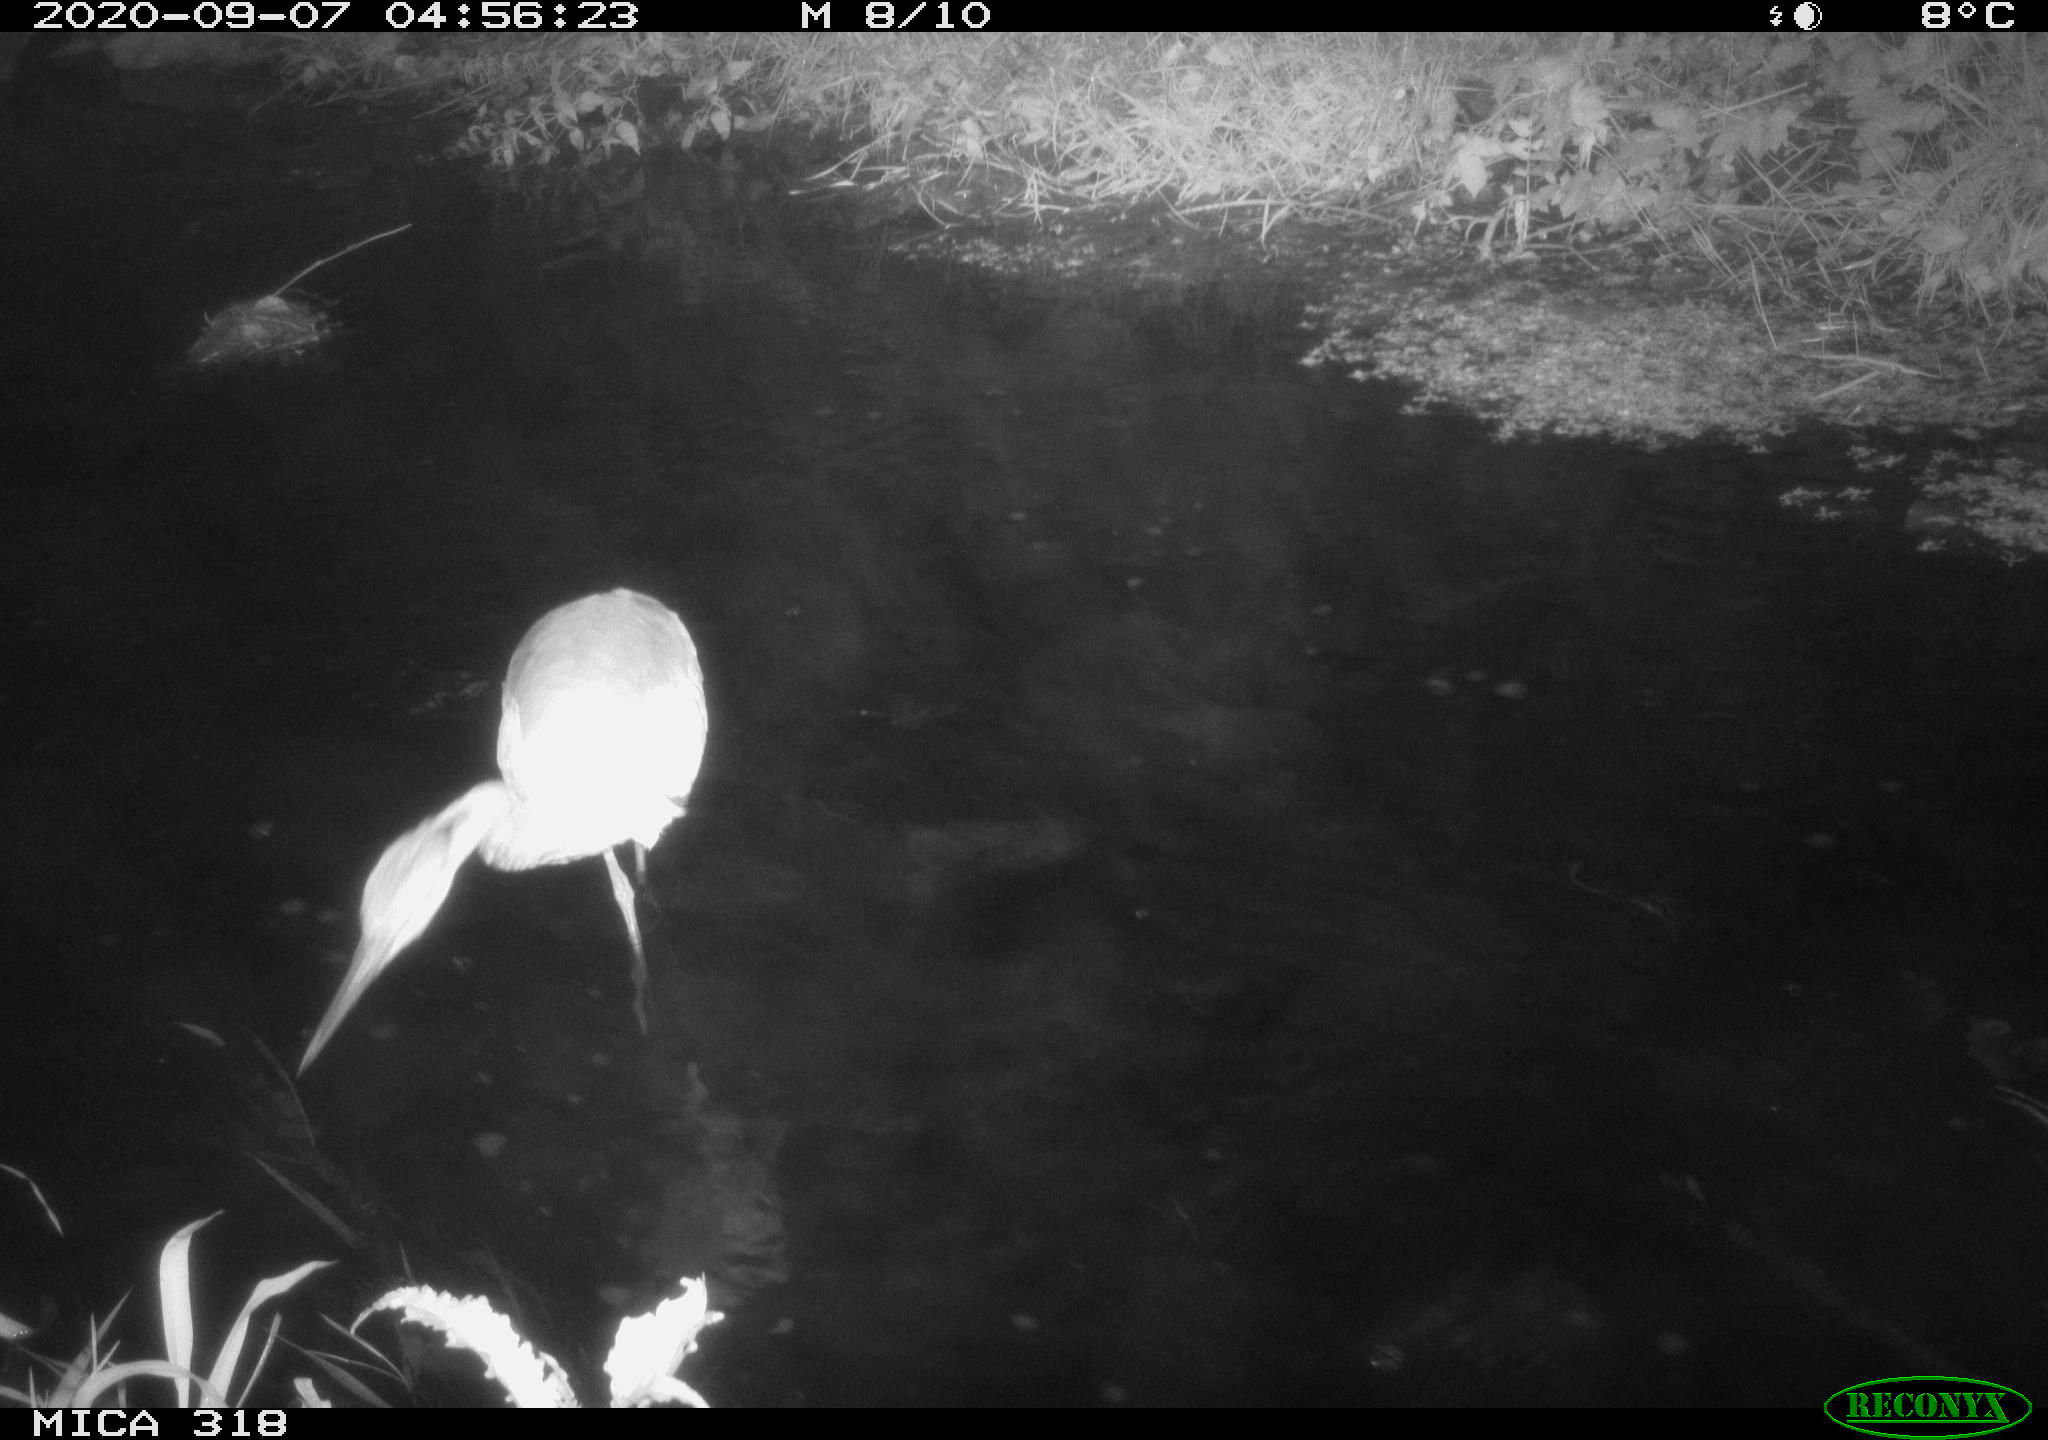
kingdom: Animalia
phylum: Chordata
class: Aves
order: Pelecaniformes
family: Ardeidae
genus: Ardea
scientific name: Ardea
